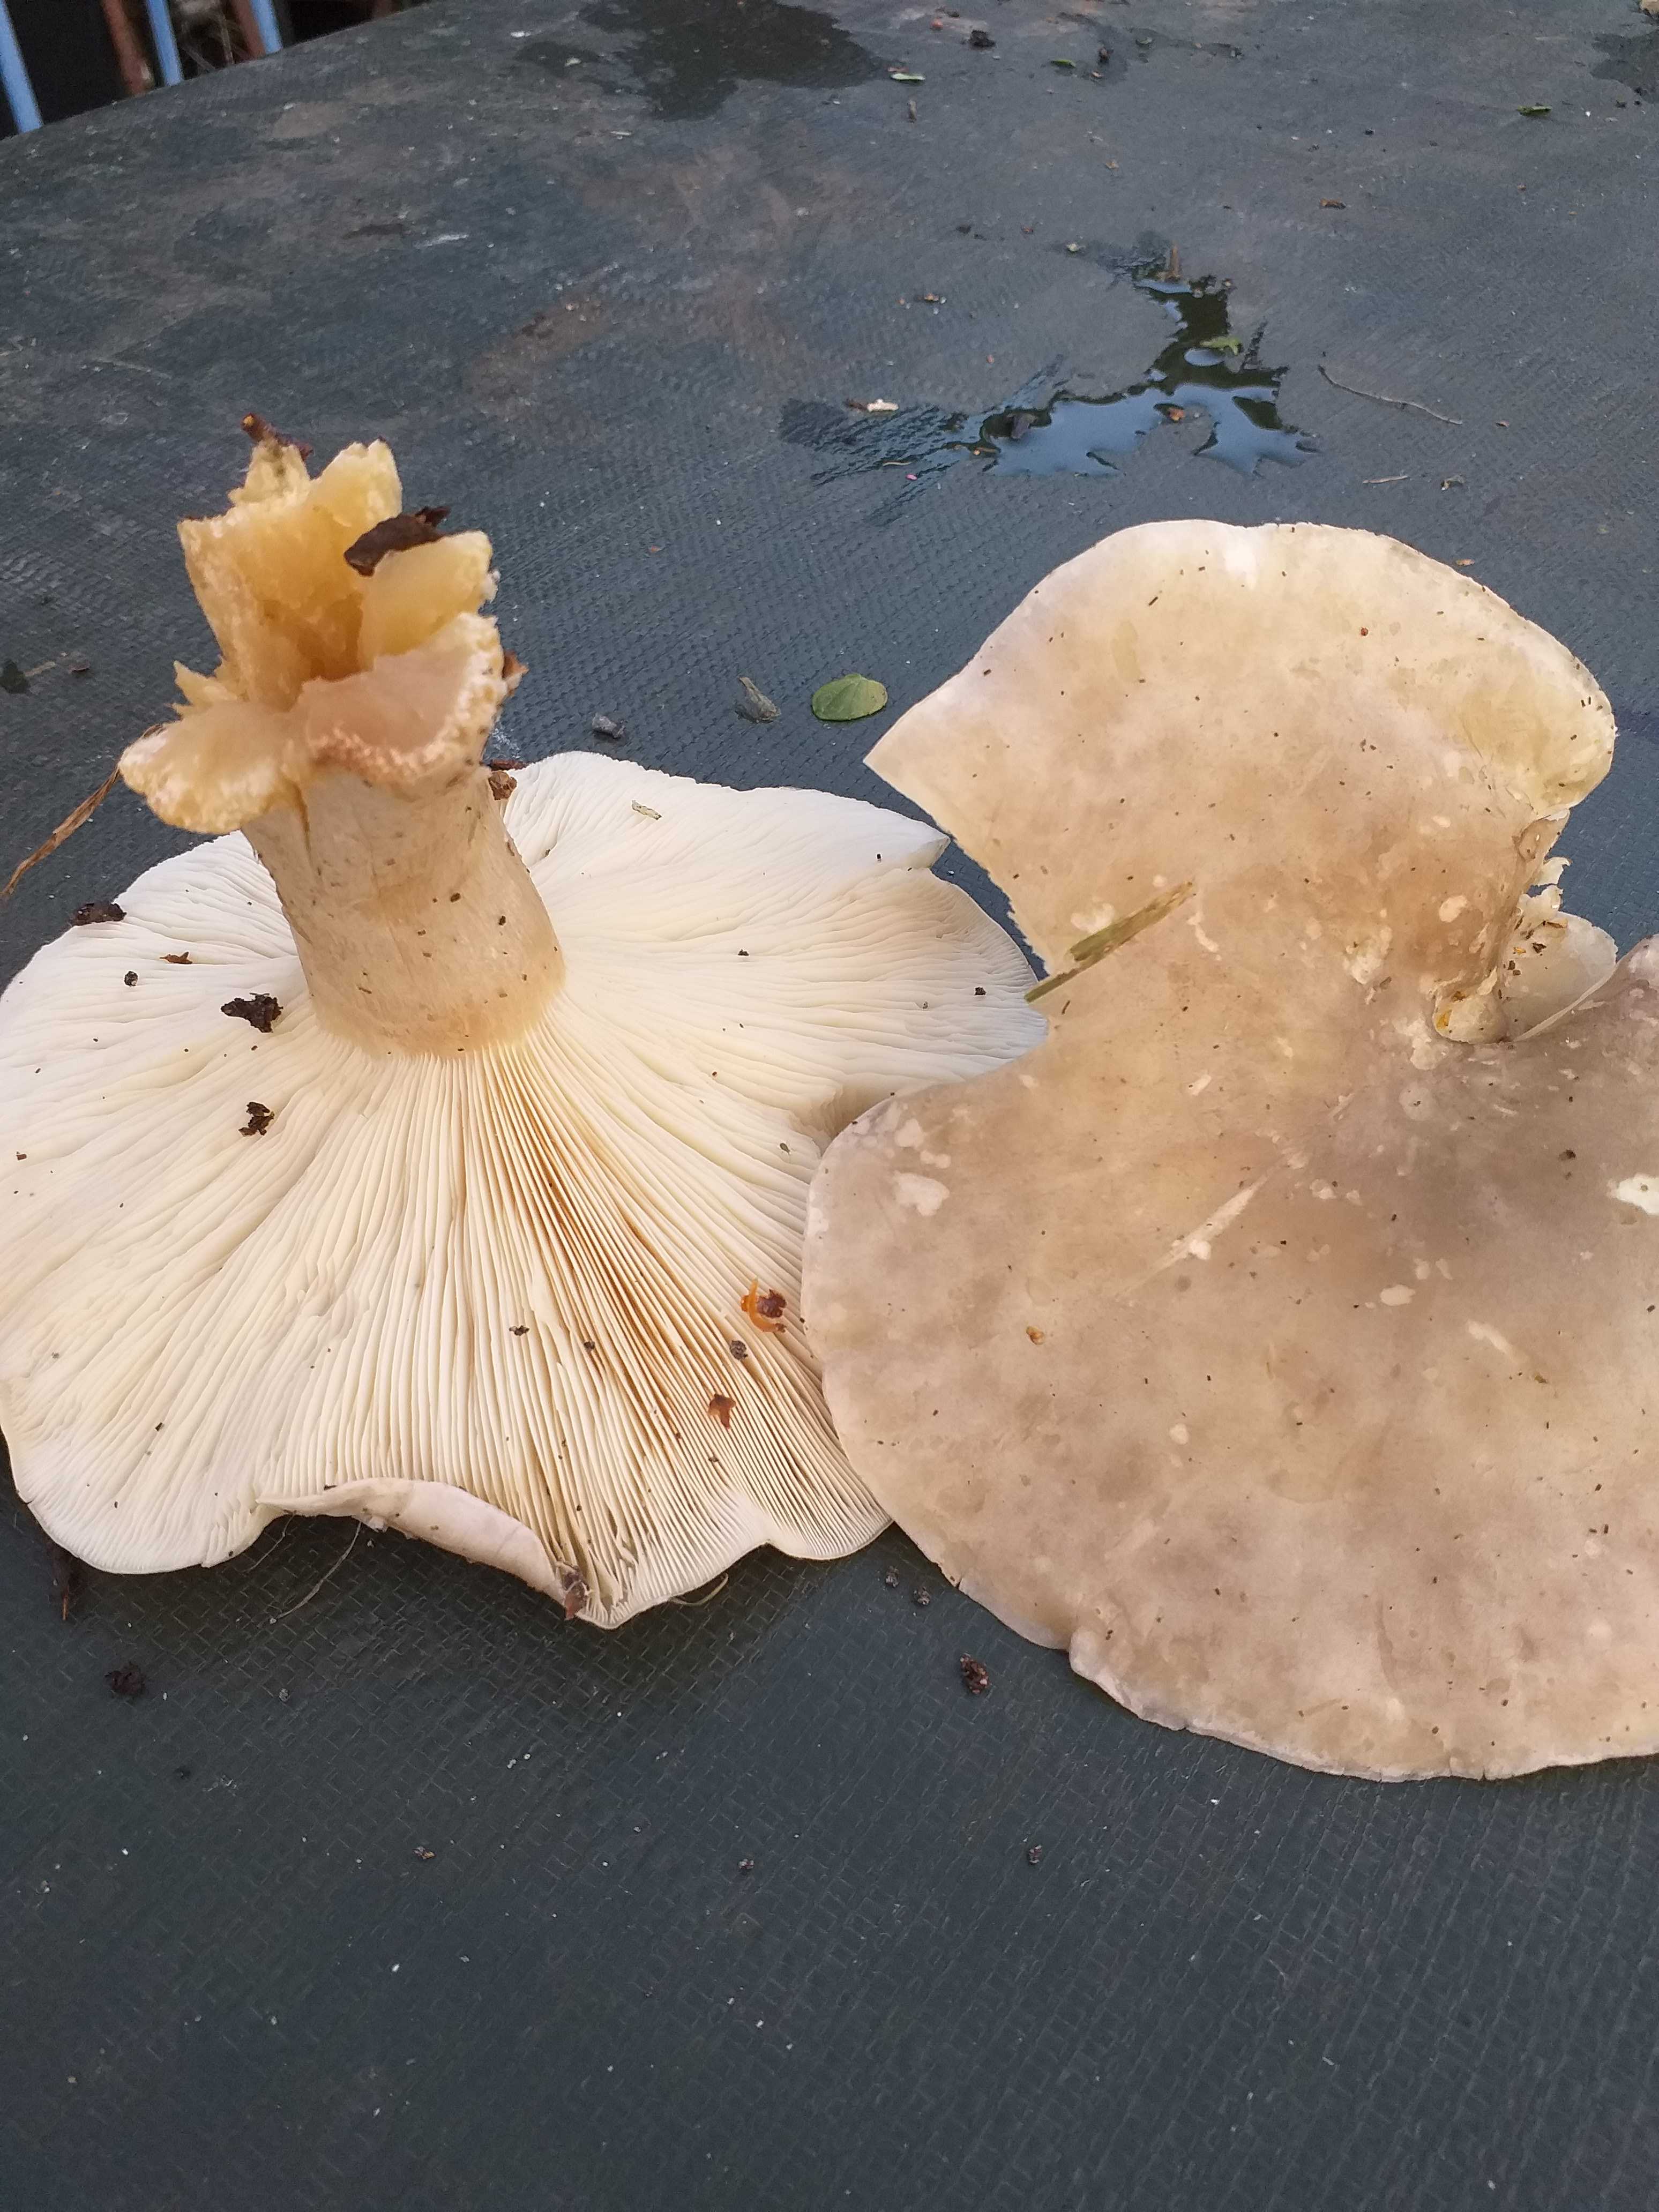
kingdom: Fungi
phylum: Basidiomycota
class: Agaricomycetes
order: Agaricales
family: Tricholomataceae
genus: Clitocybe
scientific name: Clitocybe nebularis
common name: tåge-tragthat
